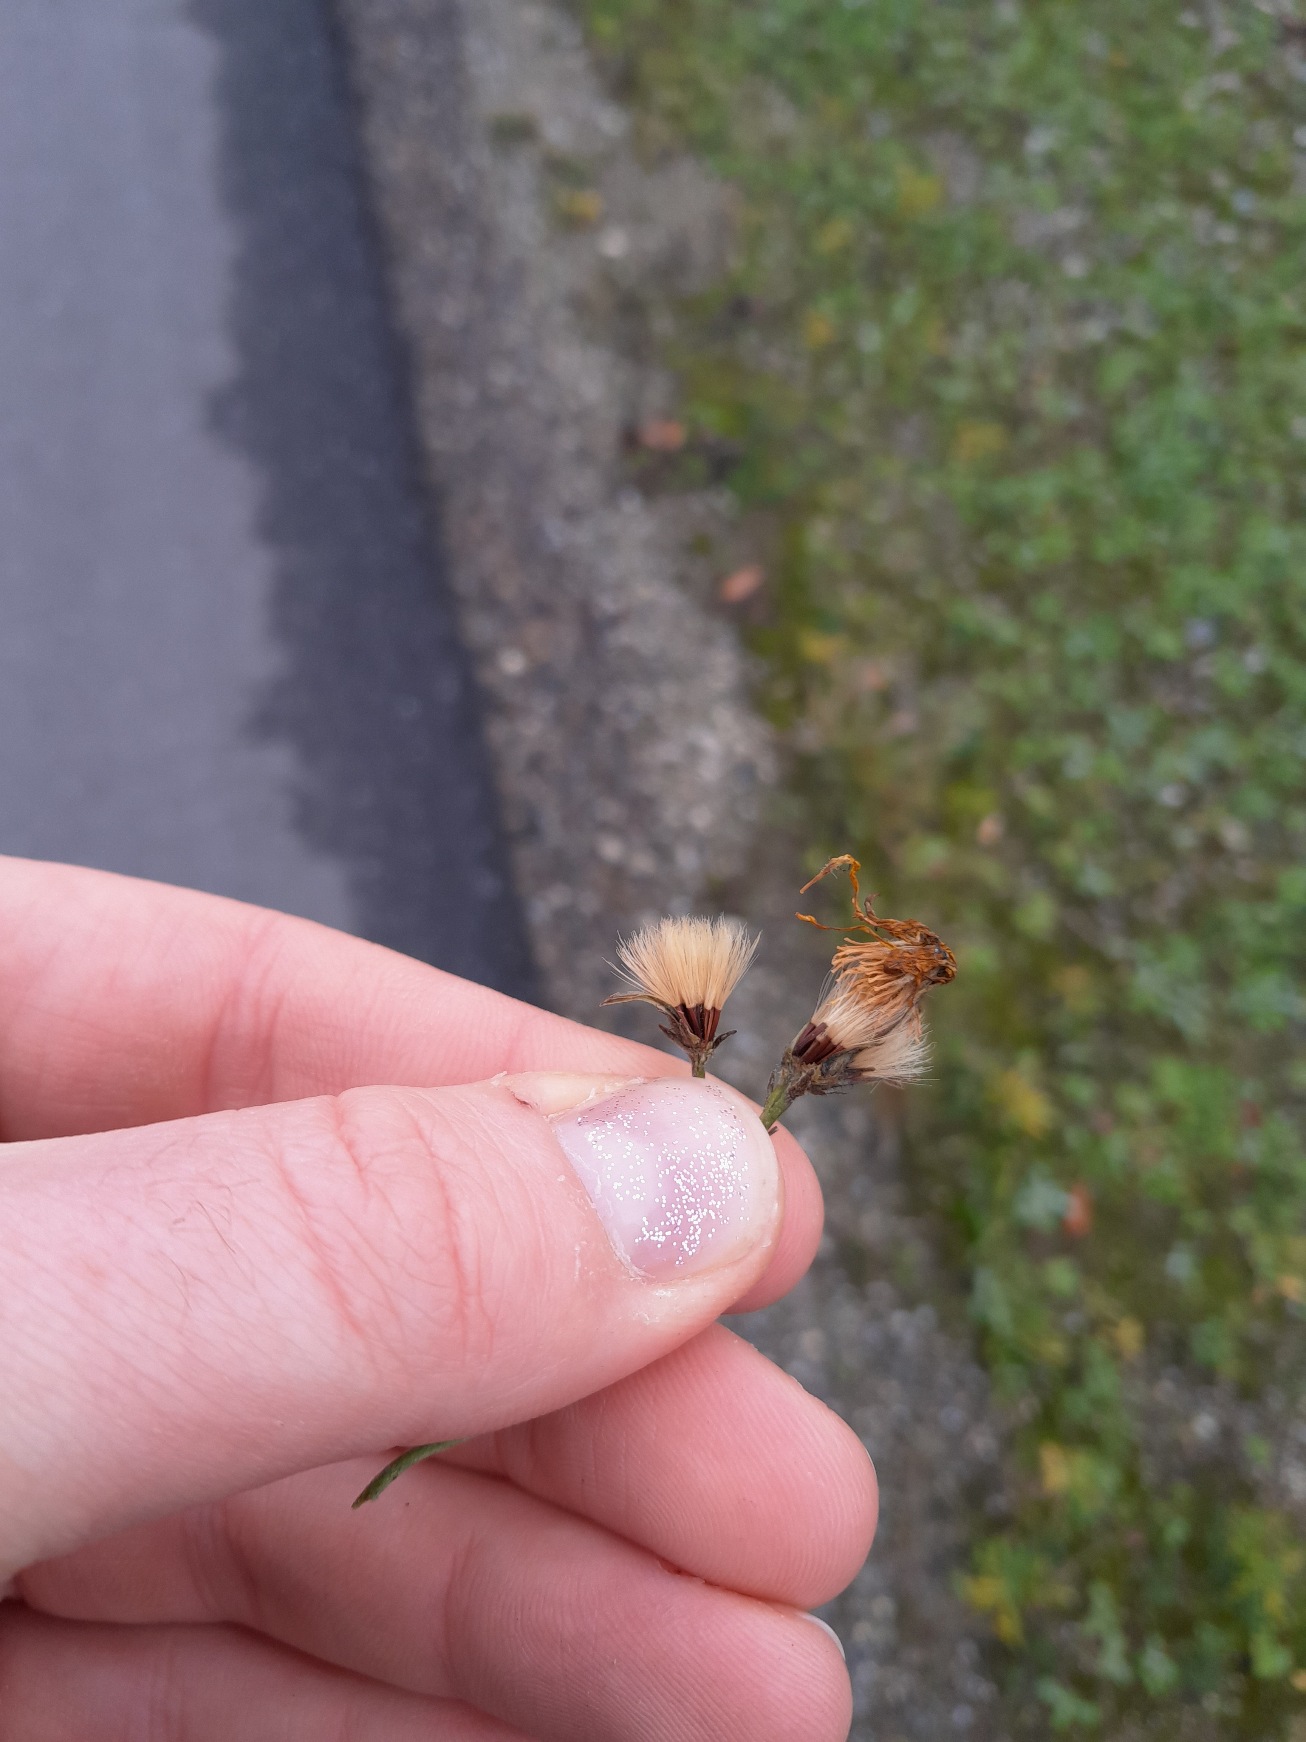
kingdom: Plantae
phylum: Tracheophyta
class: Magnoliopsida
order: Asterales
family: Asteraceae
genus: Hieracium
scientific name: Hieracium
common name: Høgeurt (Hieracium-slægten)
